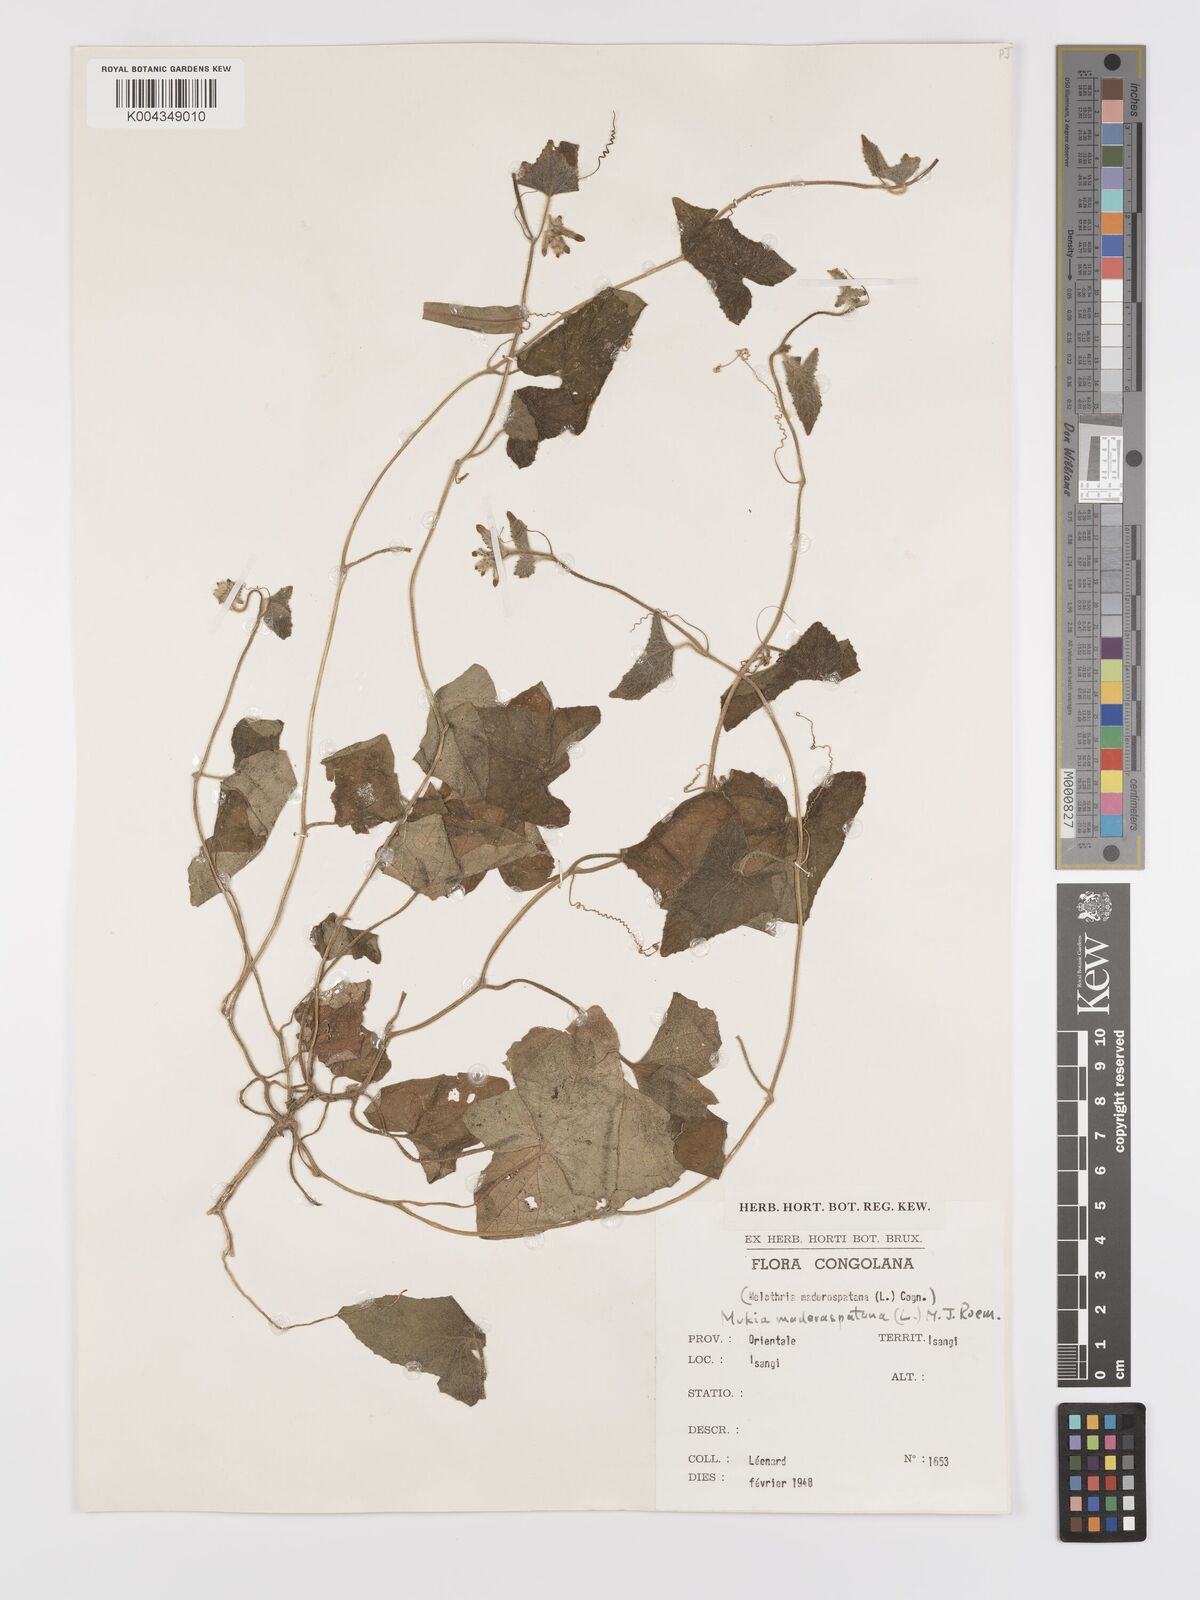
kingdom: Plantae
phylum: Tracheophyta
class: Magnoliopsida
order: Cucurbitales
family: Cucurbitaceae
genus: Cucumis
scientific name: Cucumis maderaspatanus
